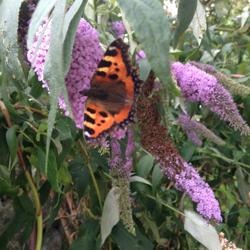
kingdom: Animalia
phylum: Arthropoda
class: Insecta
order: Lepidoptera
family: Nymphalidae
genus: Aglais
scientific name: Aglais urticae
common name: Nældens takvinge
